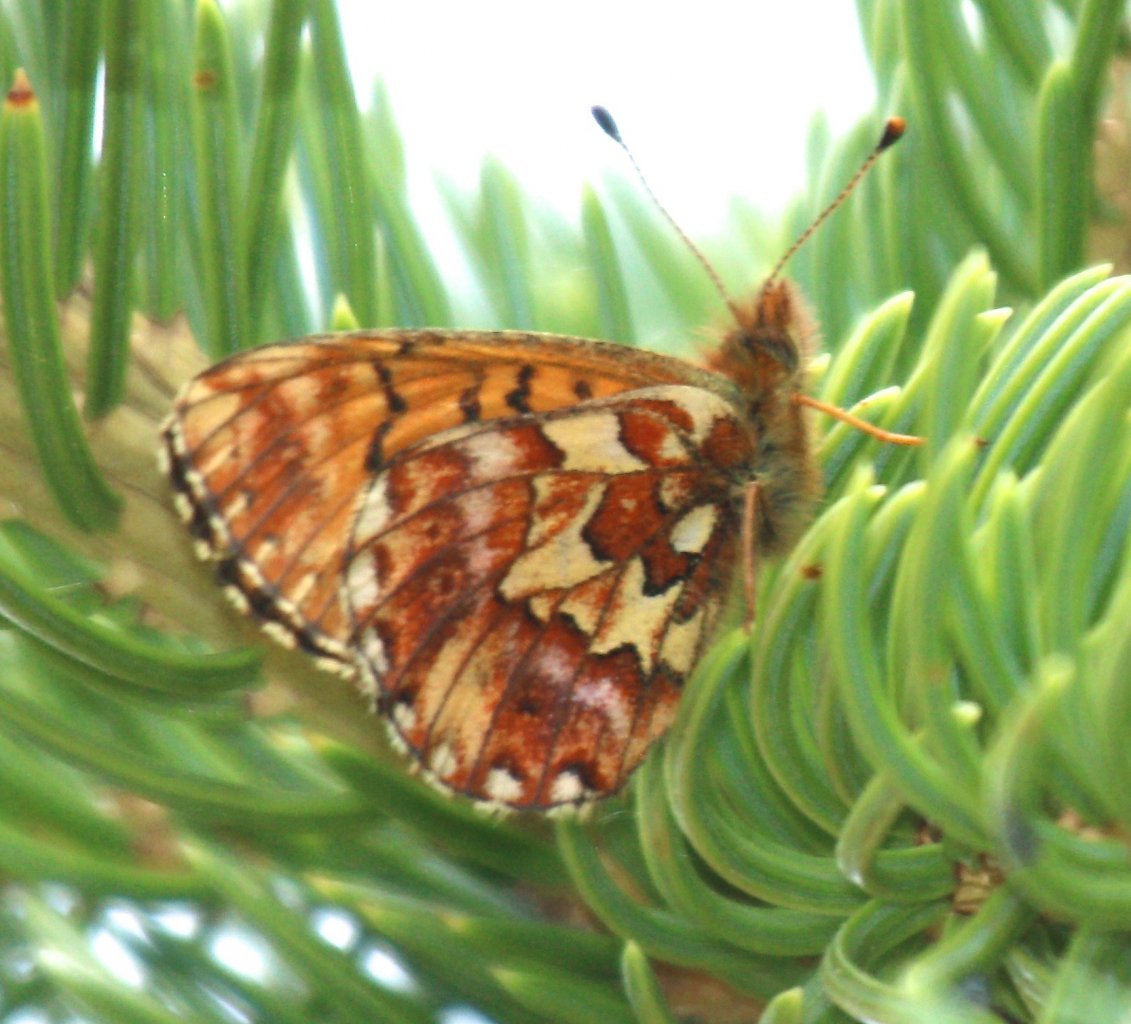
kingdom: Animalia
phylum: Arthropoda
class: Insecta
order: Lepidoptera
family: Nymphalidae
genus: Boloria
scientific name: Boloria chariclea
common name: Arctic Fritillary
